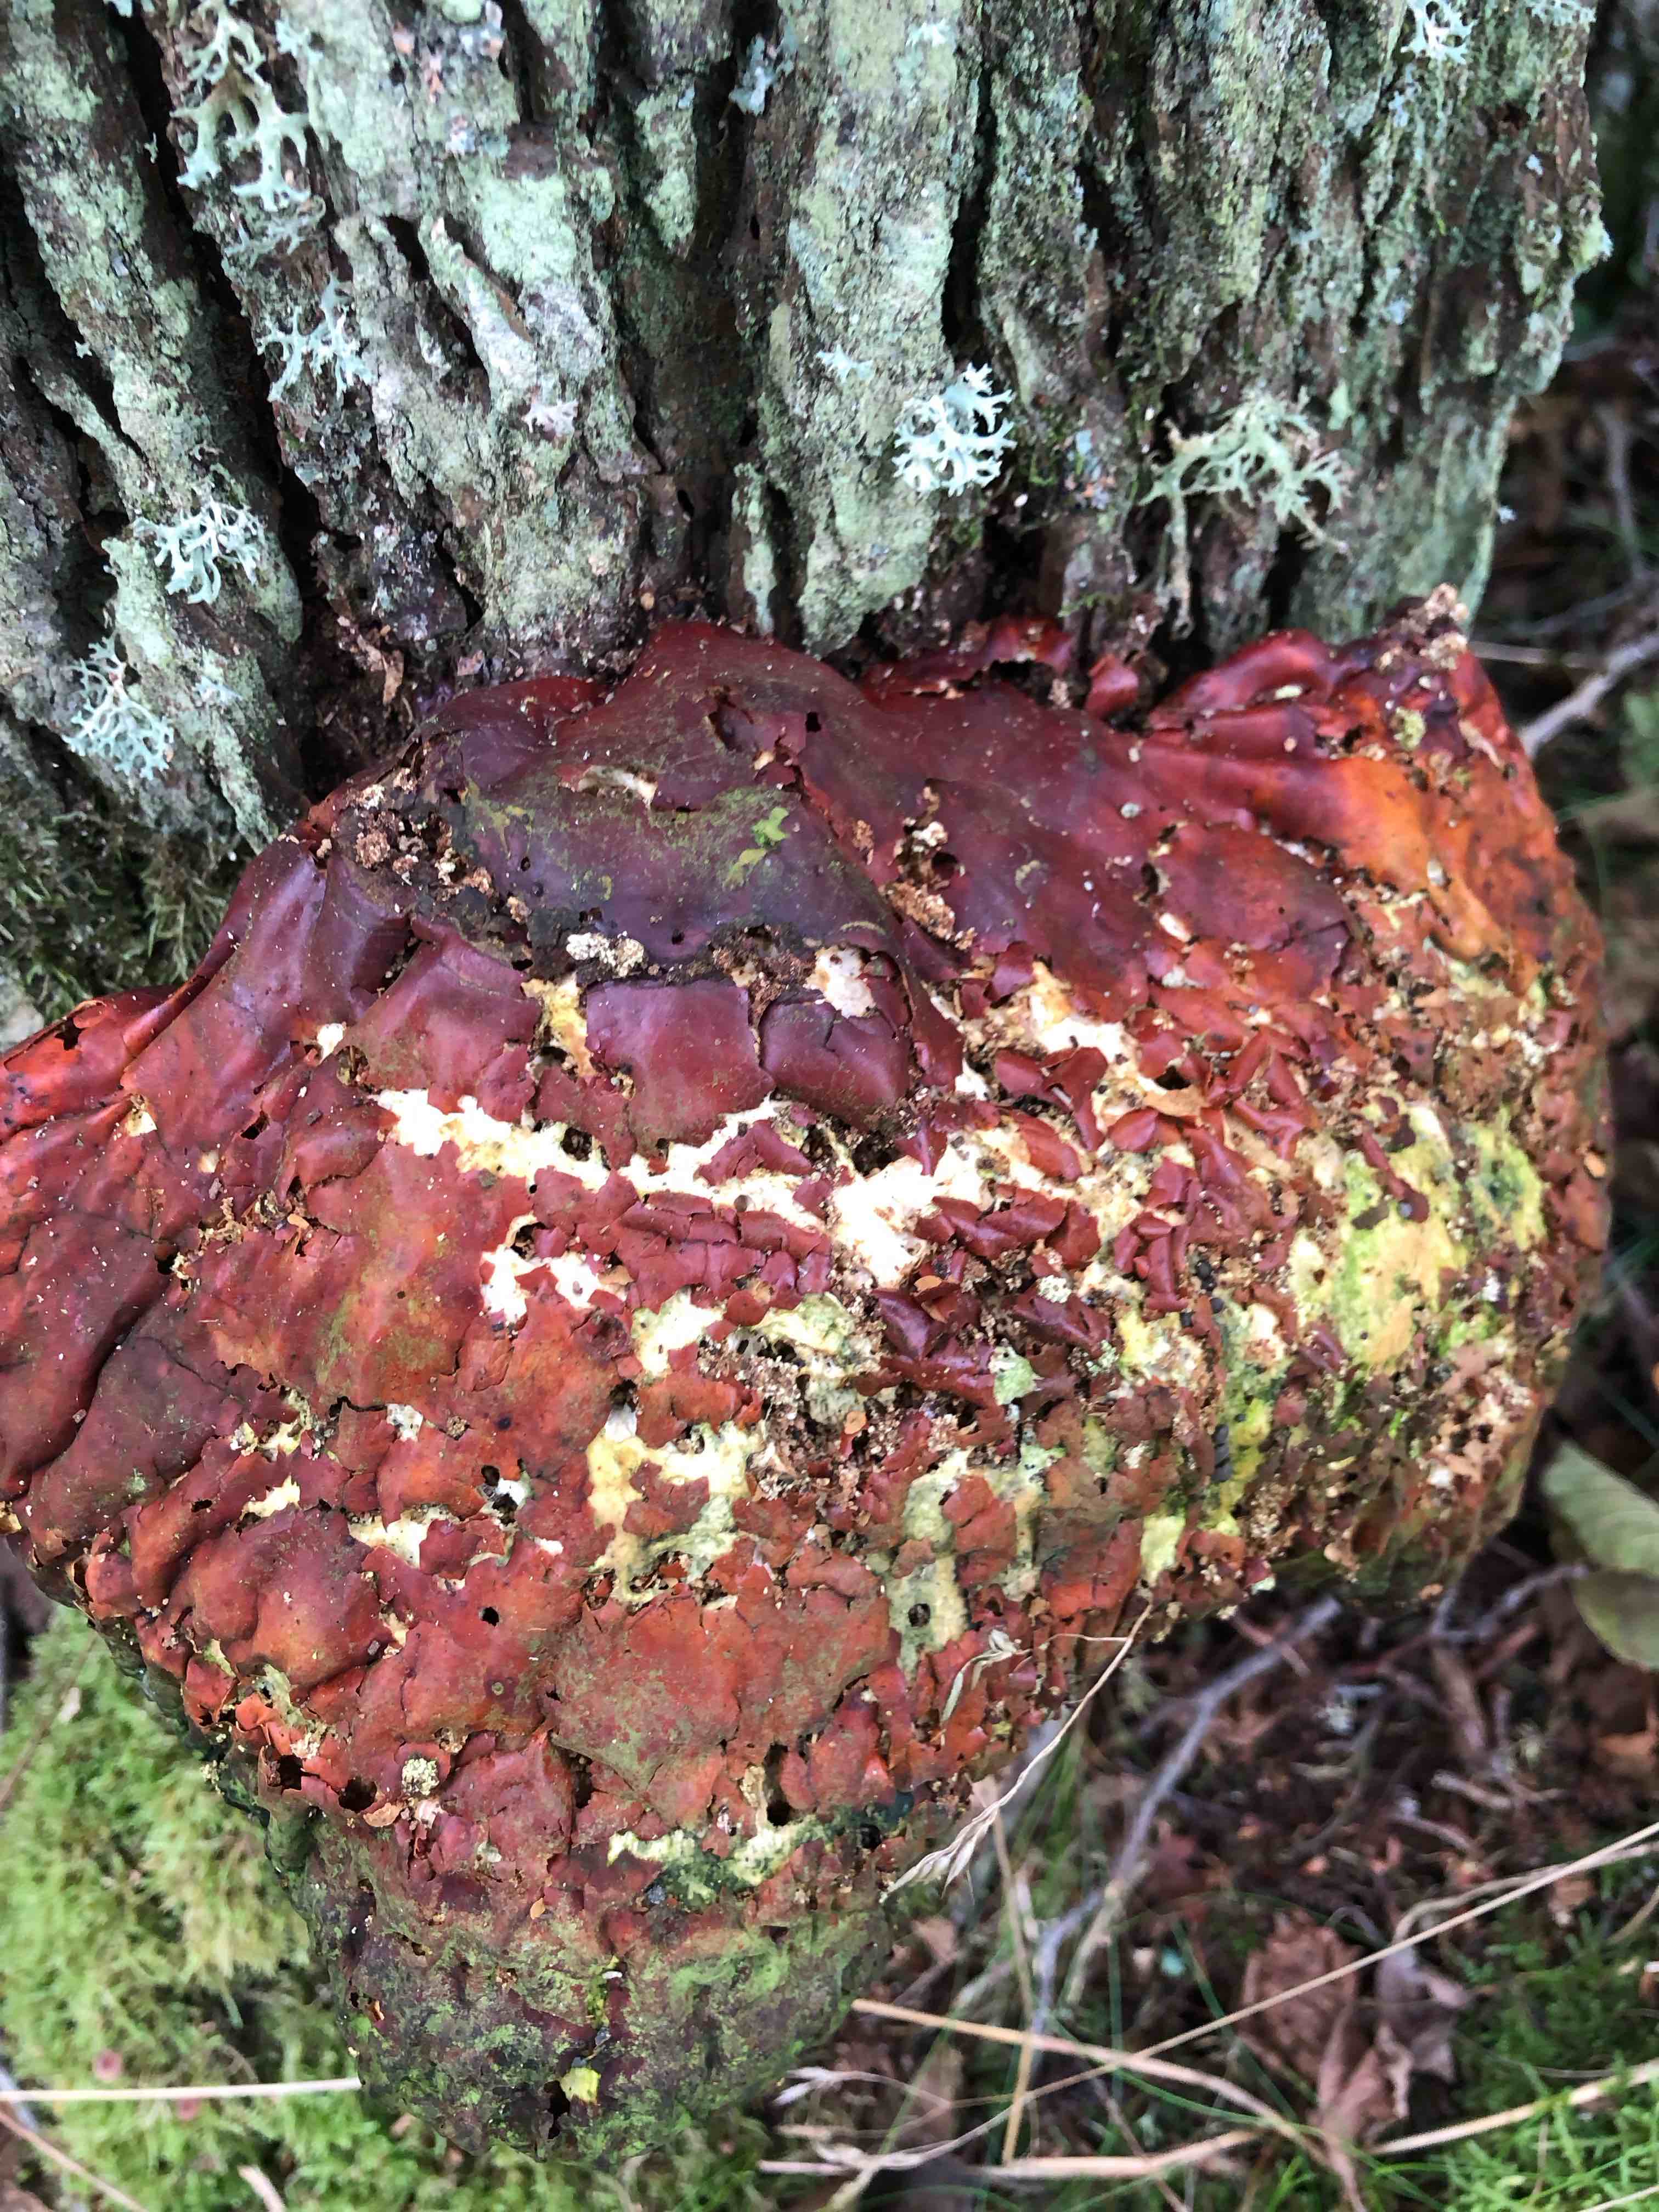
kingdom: Fungi
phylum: Basidiomycota
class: Agaricomycetes
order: Polyporales
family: Polyporaceae
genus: Ganoderma
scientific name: Ganoderma lucidum
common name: skinnende lakporesvamp
